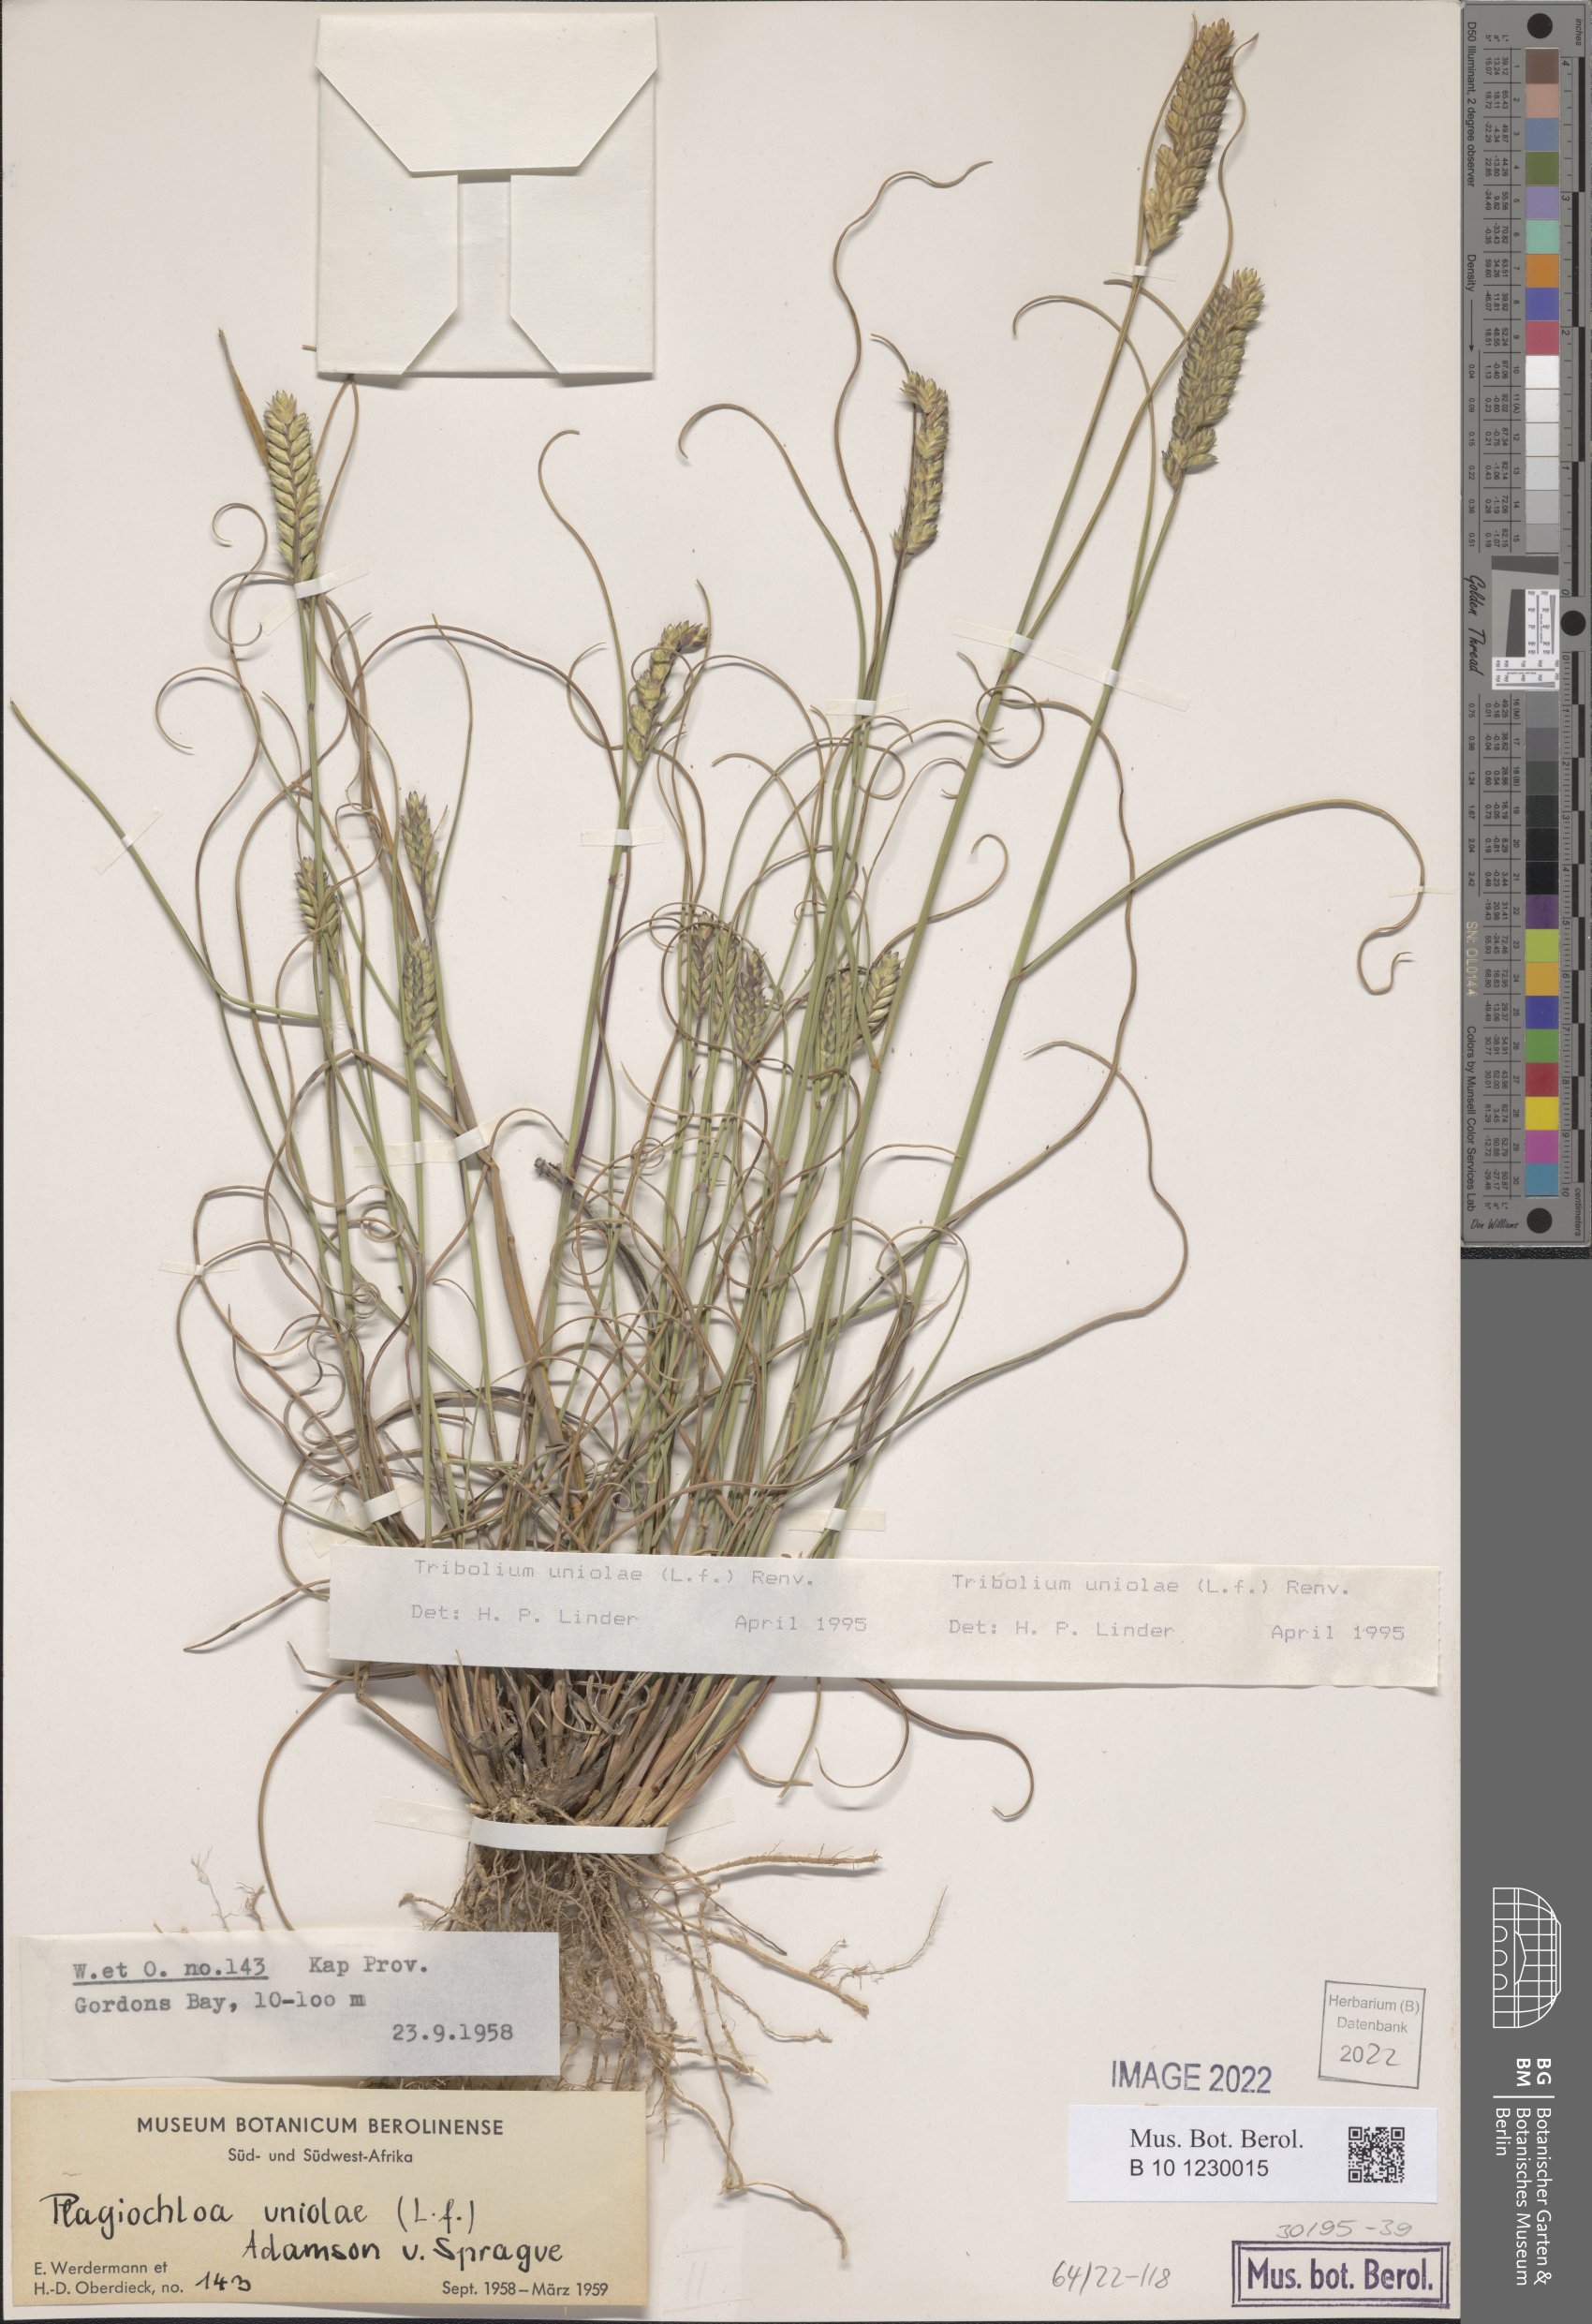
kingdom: Plantae
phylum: Tracheophyta
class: Liliopsida
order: Poales
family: Poaceae
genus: Tribolium
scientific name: Tribolium uniolae
